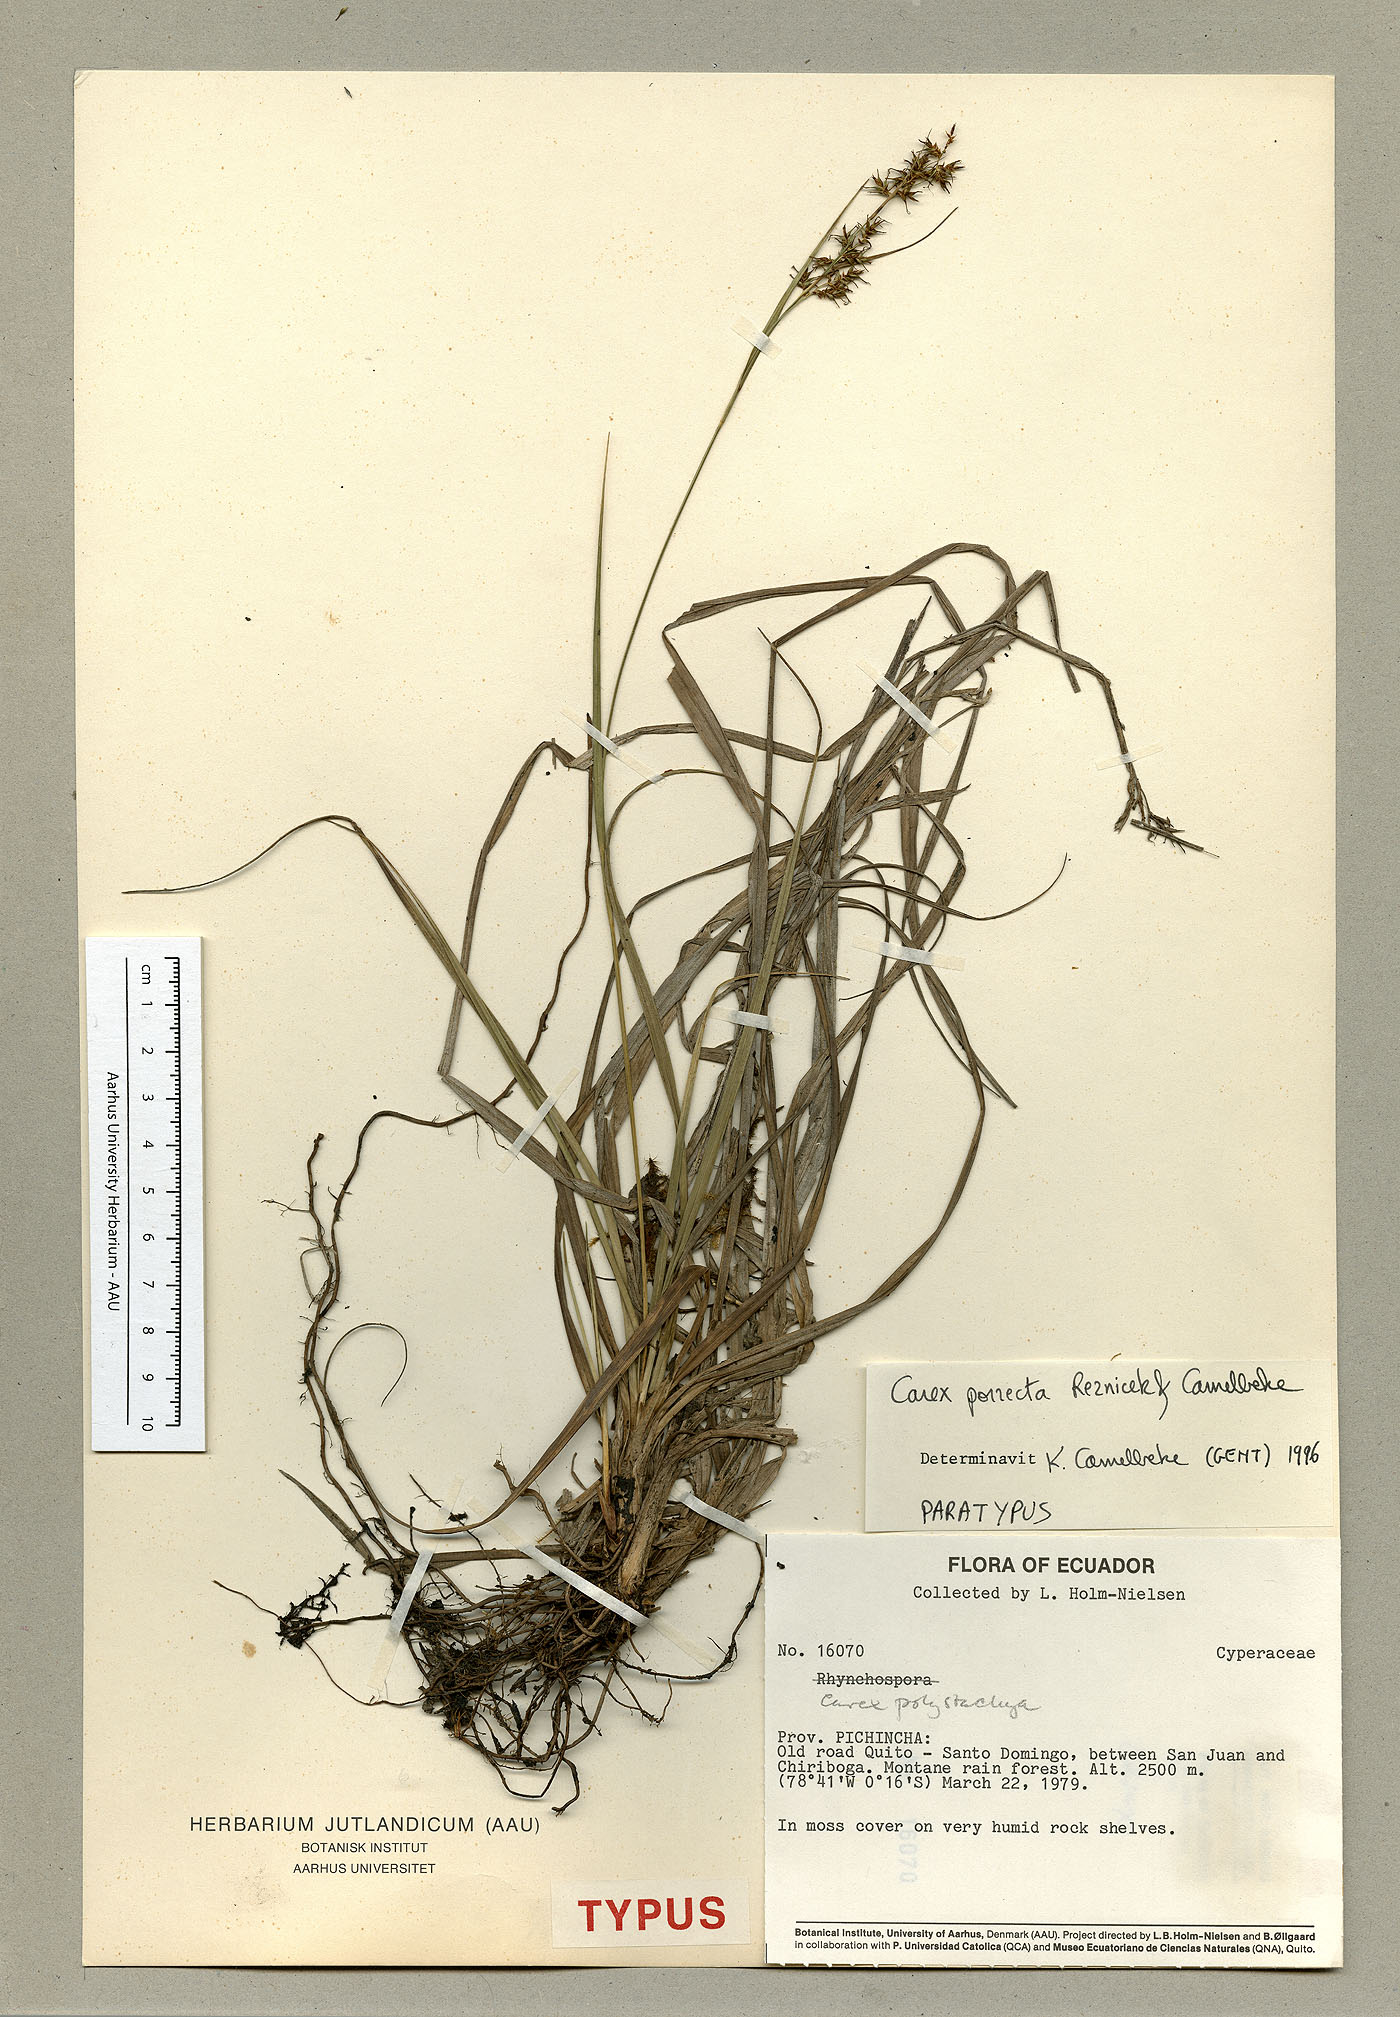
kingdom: Plantae
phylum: Tracheophyta
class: Liliopsida
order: Poales
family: Cyperaceae
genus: Carex
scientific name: Carex porrecta
